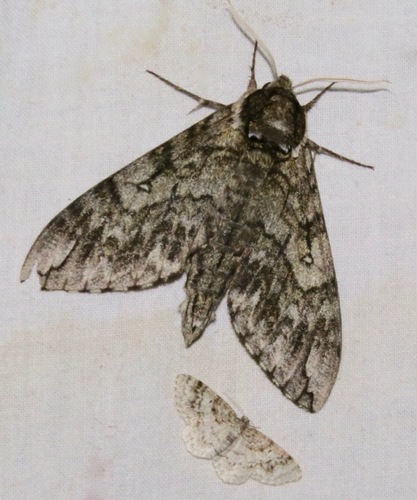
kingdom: Animalia
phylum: Arthropoda
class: Insecta
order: Lepidoptera
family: Sphingidae
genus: Ceratomia
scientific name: Ceratomia undulosa
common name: Waved sphinx
